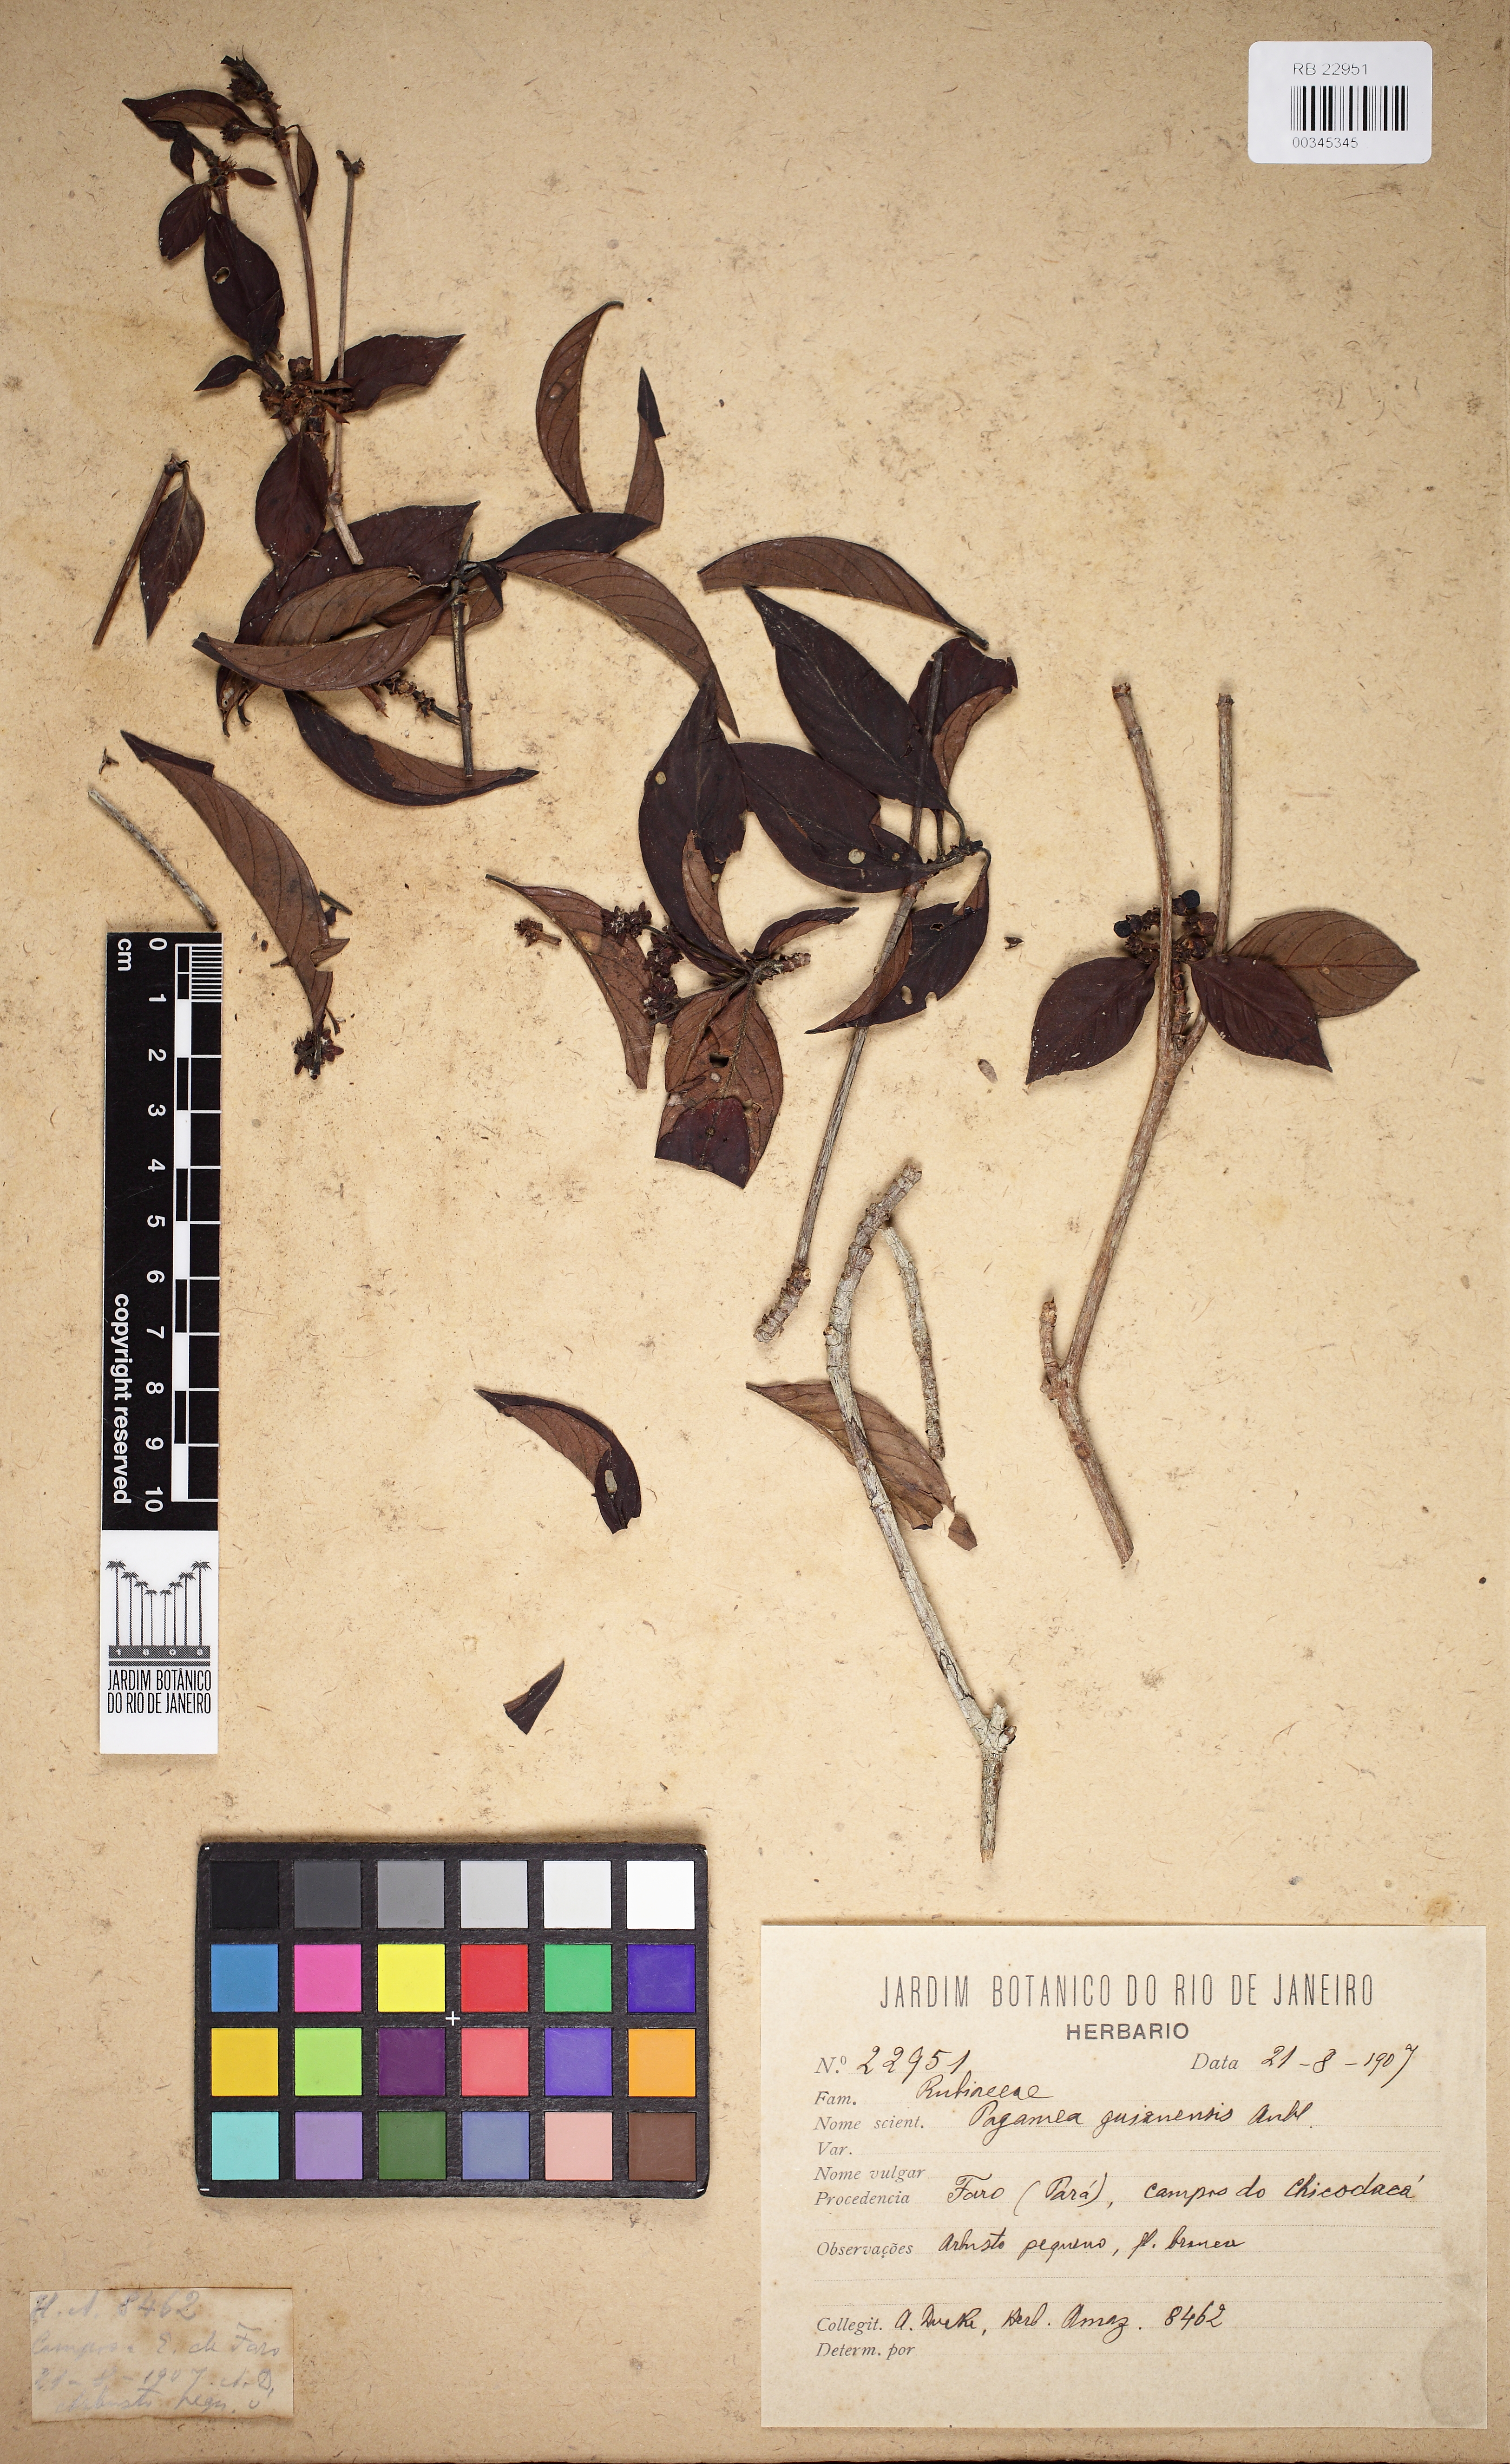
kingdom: Plantae
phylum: Tracheophyta
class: Magnoliopsida
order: Gentianales
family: Rubiaceae
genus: Pagamea
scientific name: Pagamea guianensis
